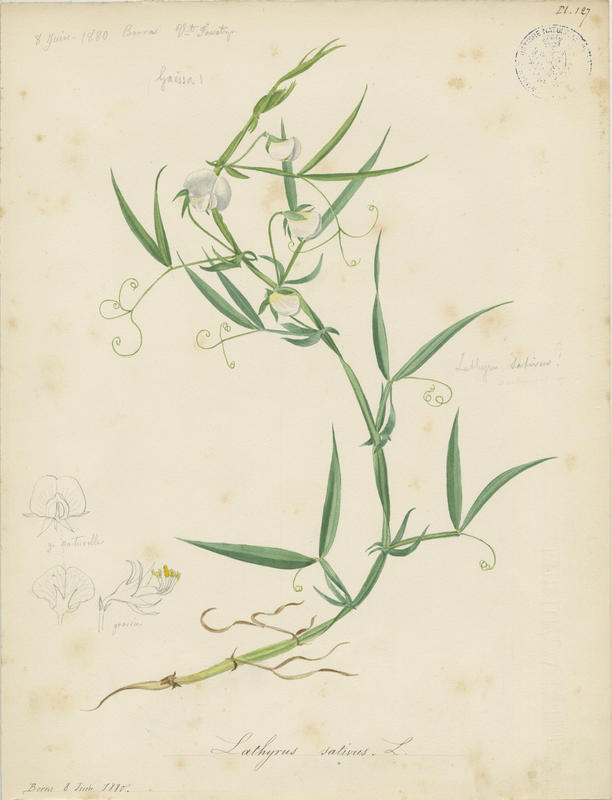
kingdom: Plantae
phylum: Tracheophyta
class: Magnoliopsida
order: Fabales
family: Fabaceae
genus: Lathyrus
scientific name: Lathyrus sativus
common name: Indian pea
